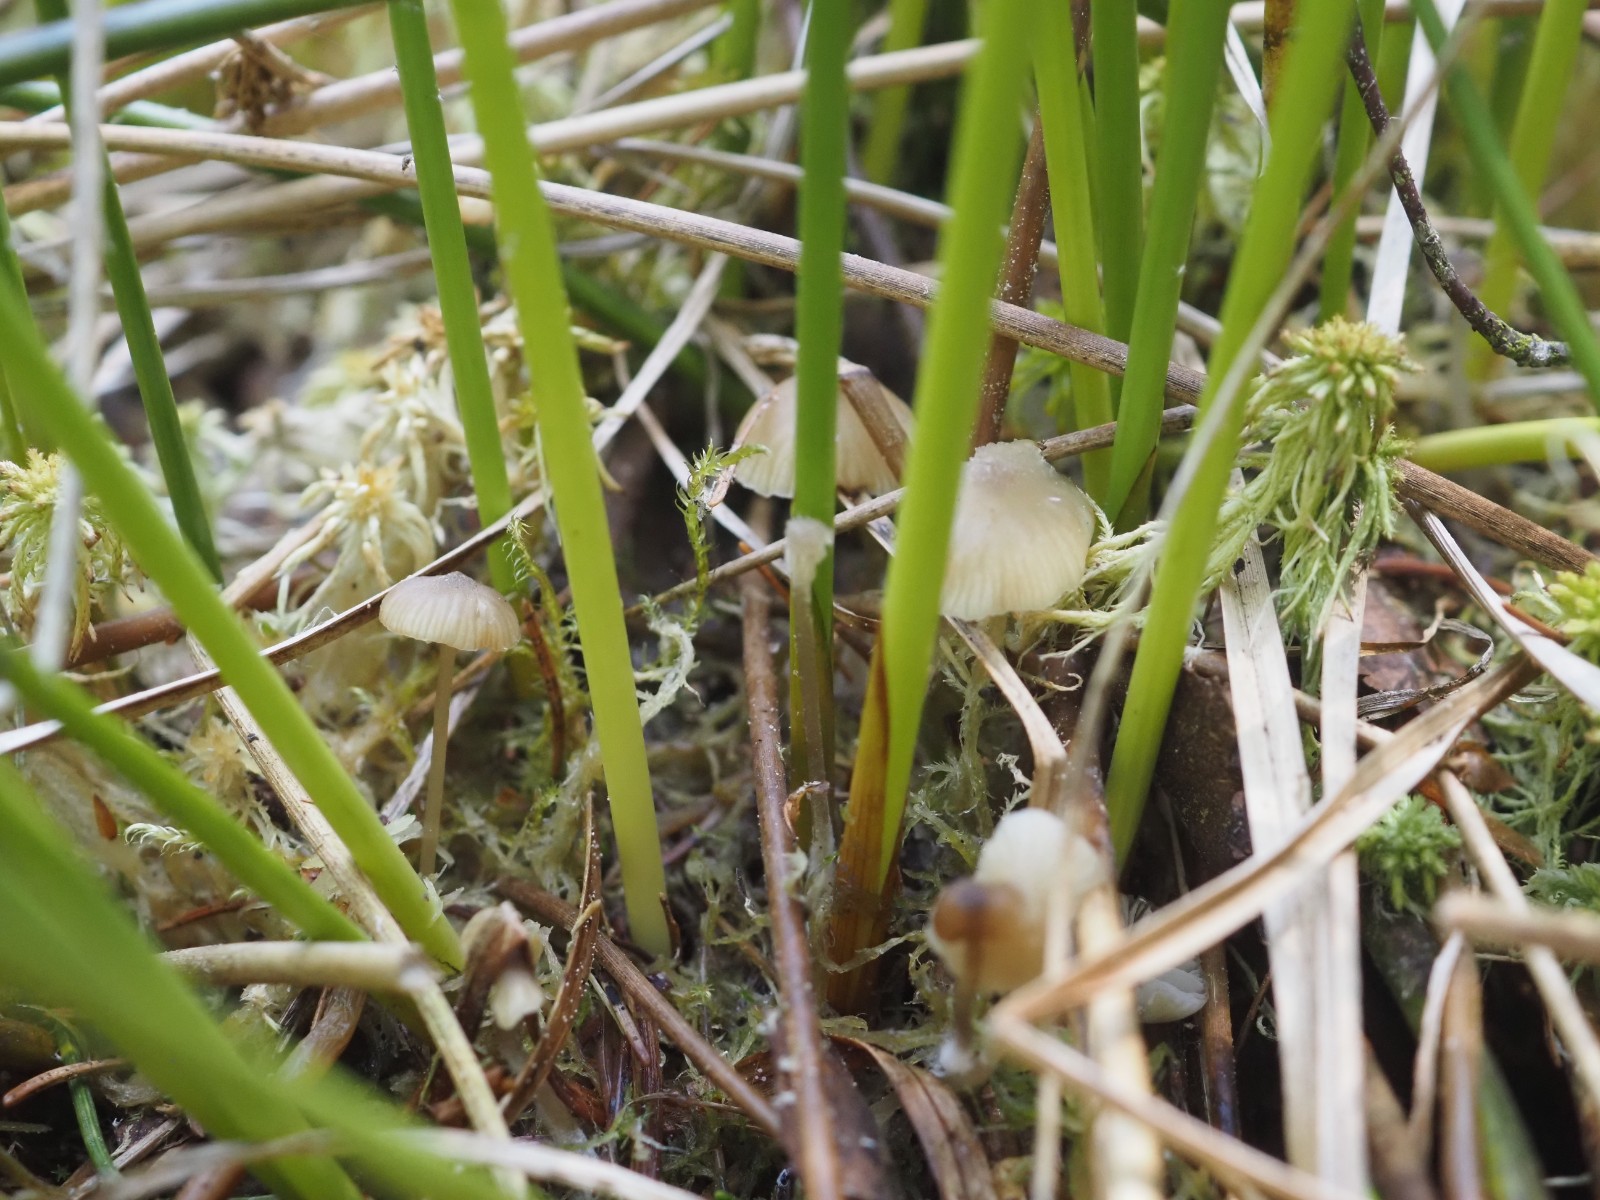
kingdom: Fungi
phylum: Basidiomycota
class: Agaricomycetes
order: Agaricales
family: Mycenaceae
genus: Mycena
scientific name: Mycena galopus
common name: hvidmælket huesvamp
